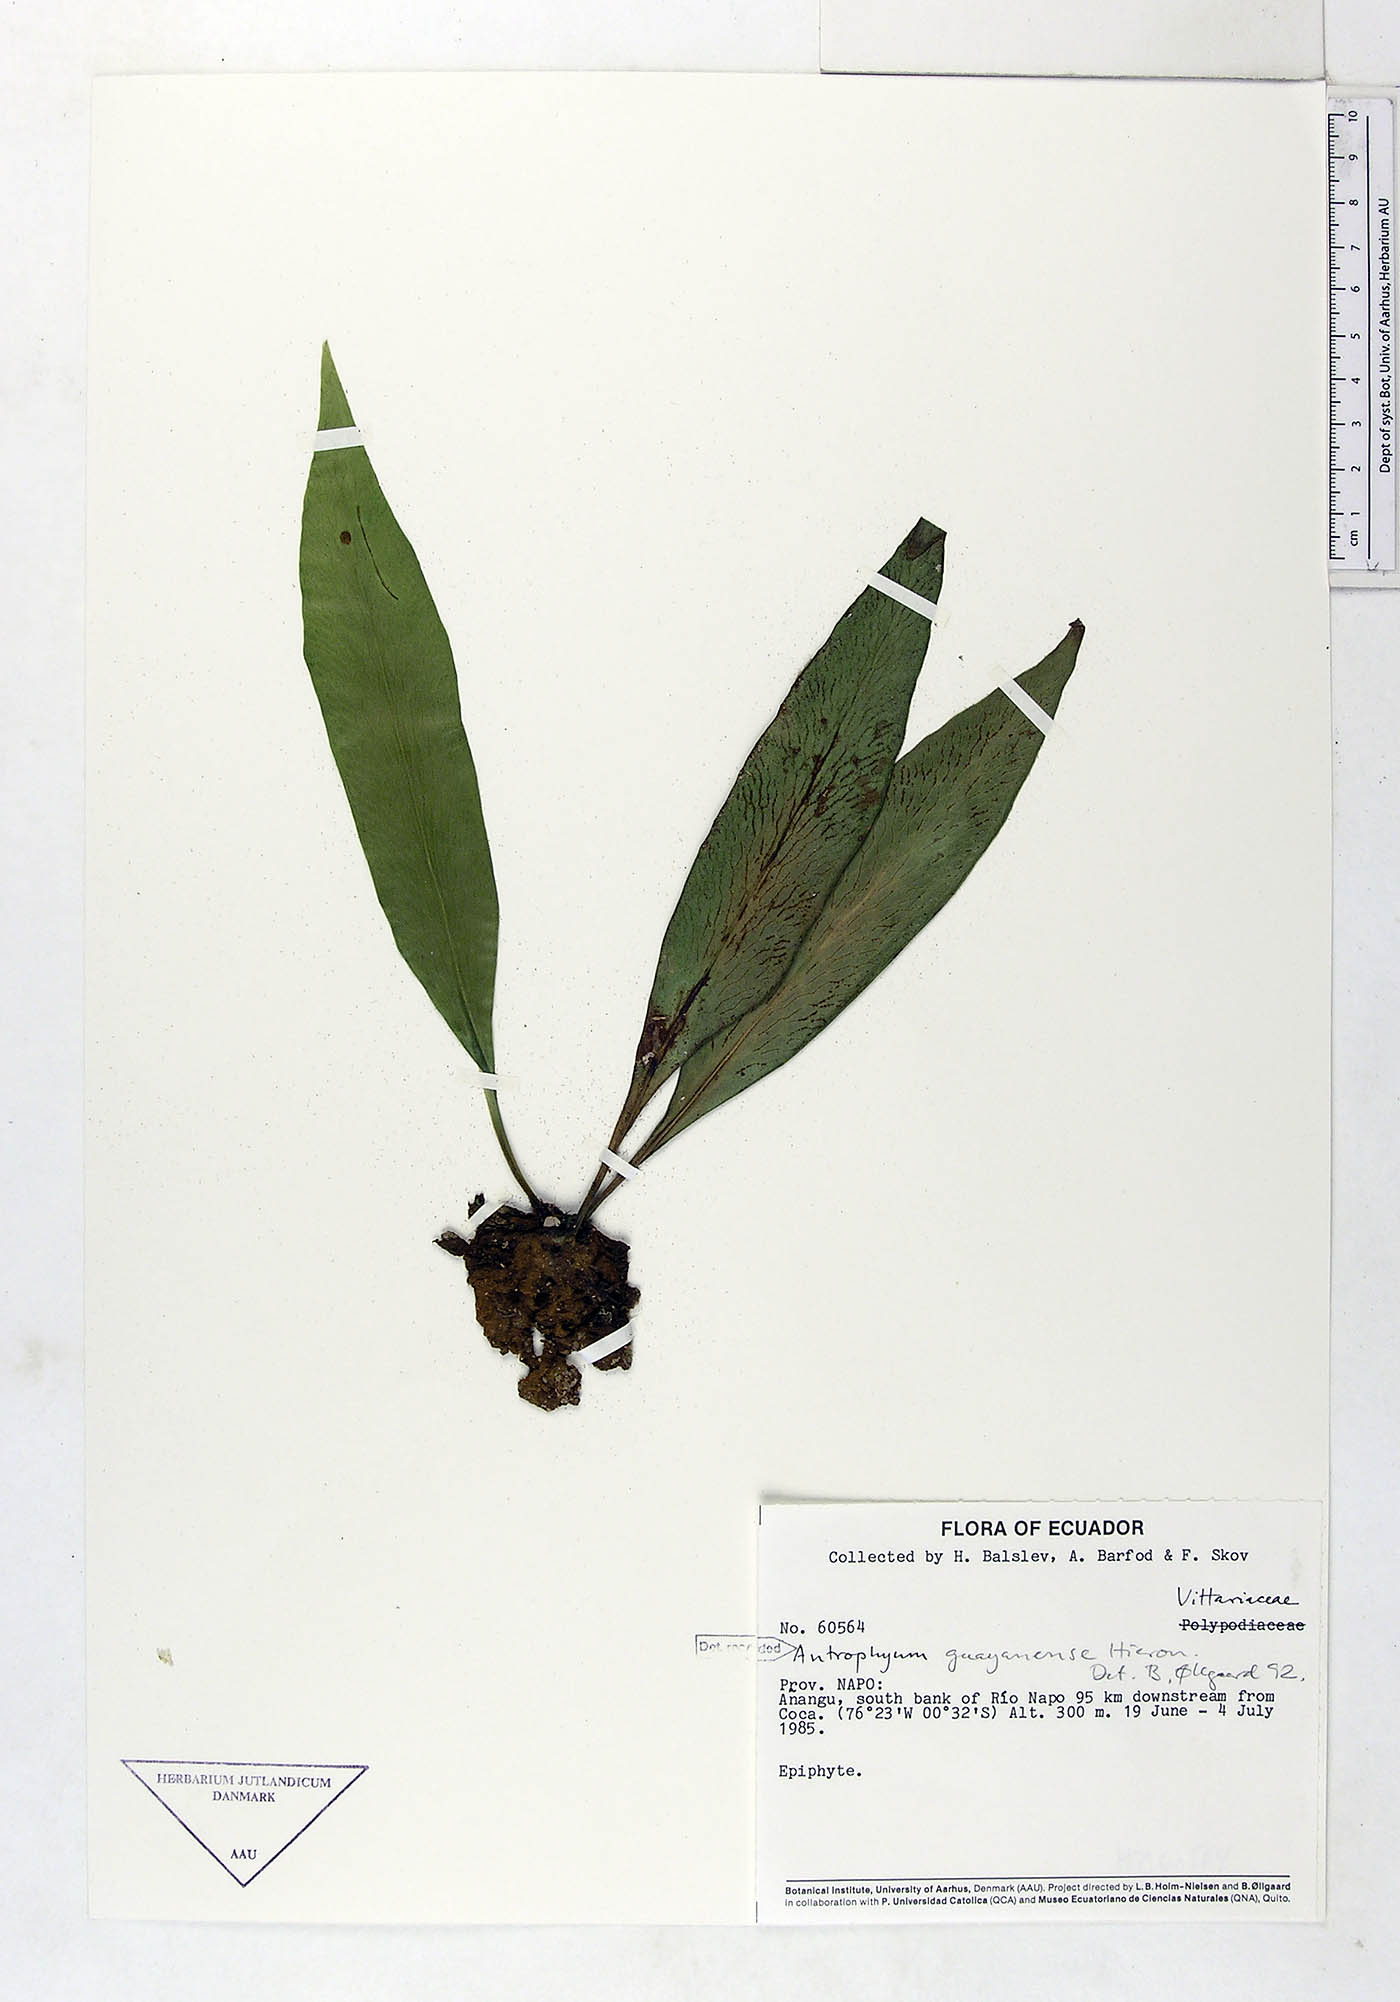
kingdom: Plantae
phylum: Tracheophyta
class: Polypodiopsida
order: Polypodiales
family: Pteridaceae
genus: Polytaenium
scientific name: Polytaenium guayanense
